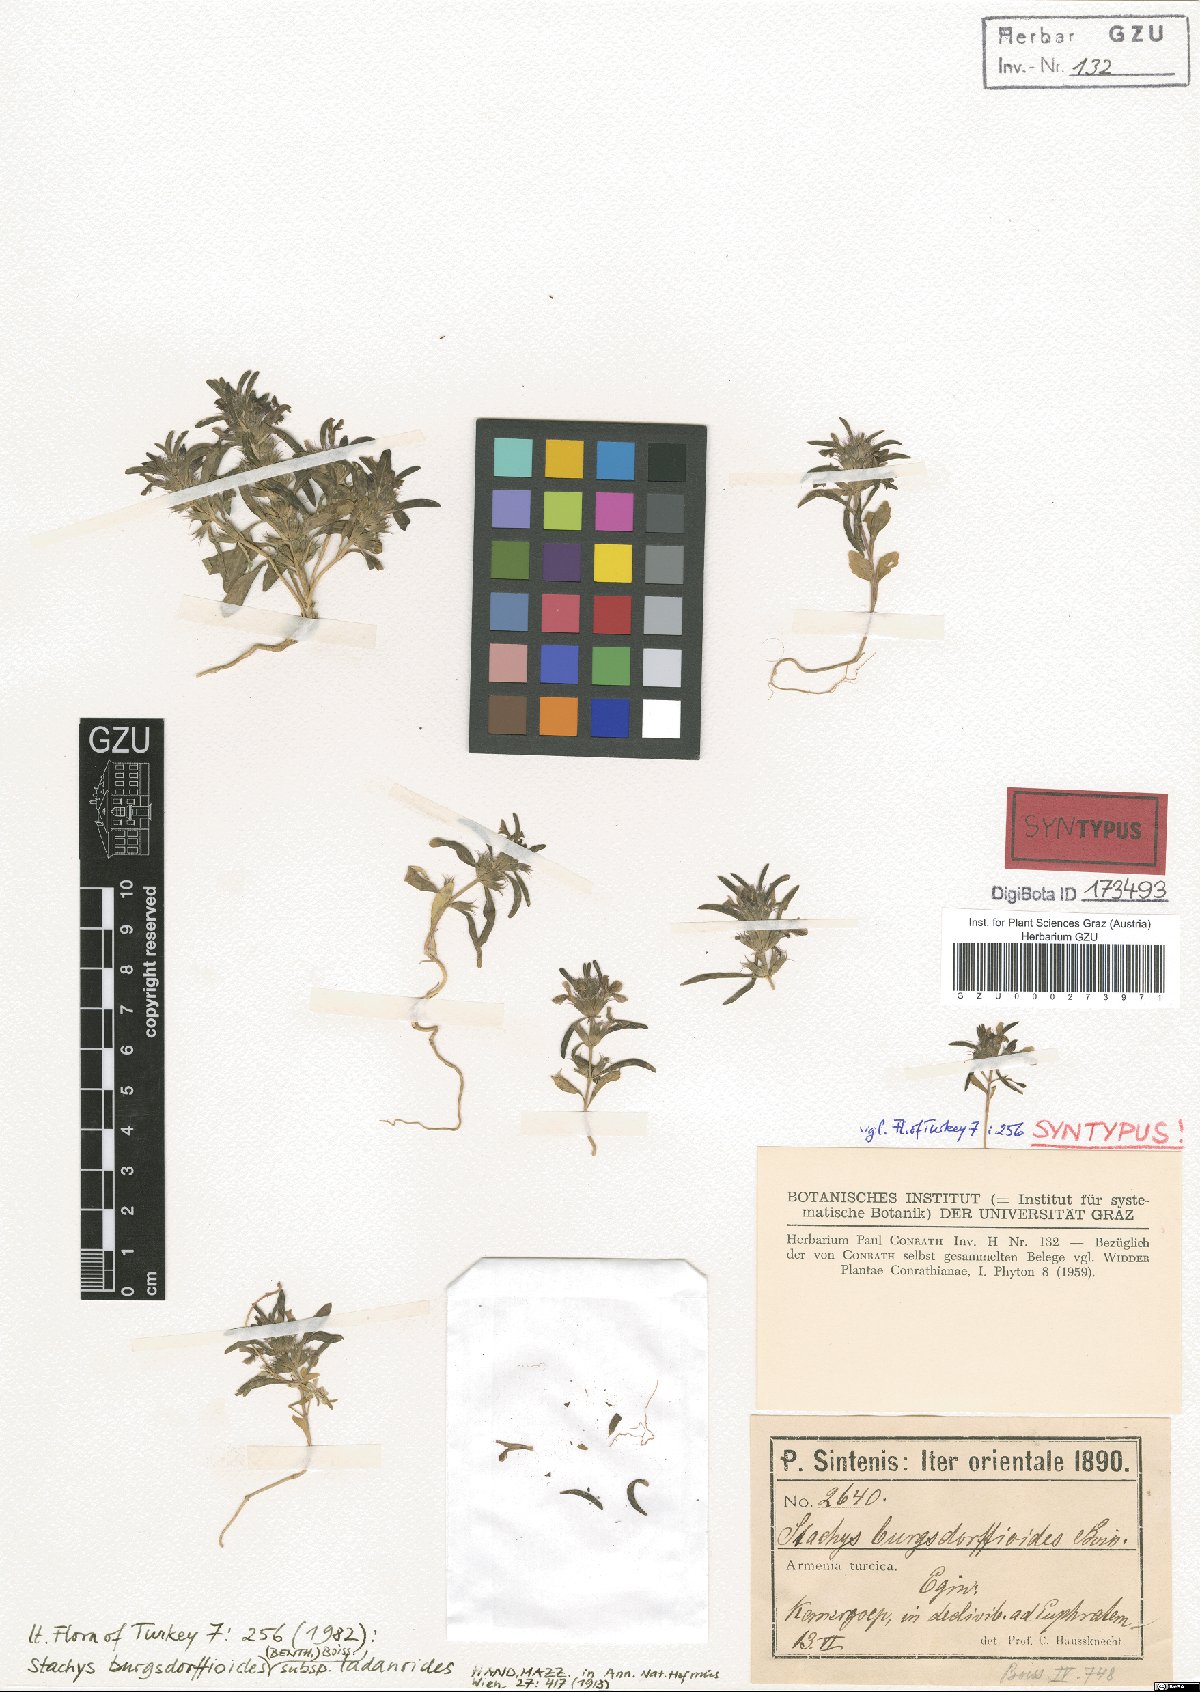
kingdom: Plantae
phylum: Tracheophyta
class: Magnoliopsida
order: Lamiales
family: Lamiaceae
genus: Stachys
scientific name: Stachys burgsdorffioides
